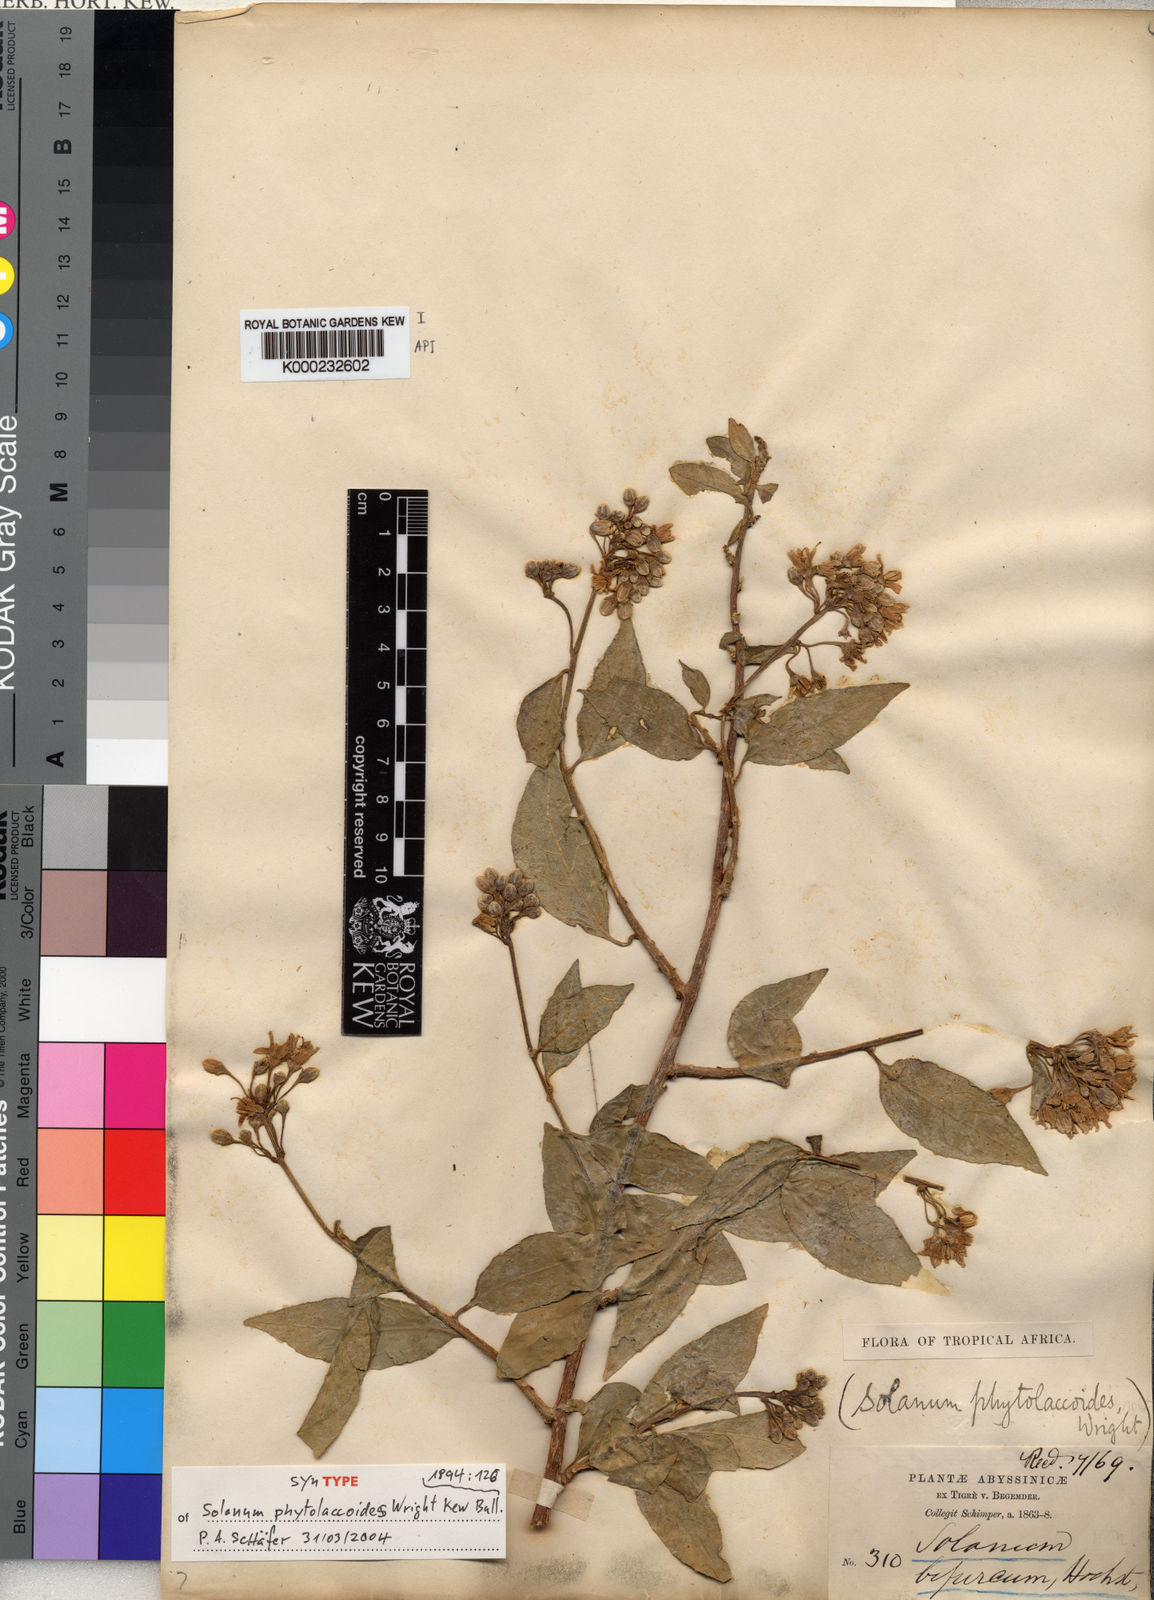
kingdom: Plantae
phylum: Tracheophyta
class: Magnoliopsida
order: Solanales
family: Solanaceae
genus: Solanum
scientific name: Solanum terminale
